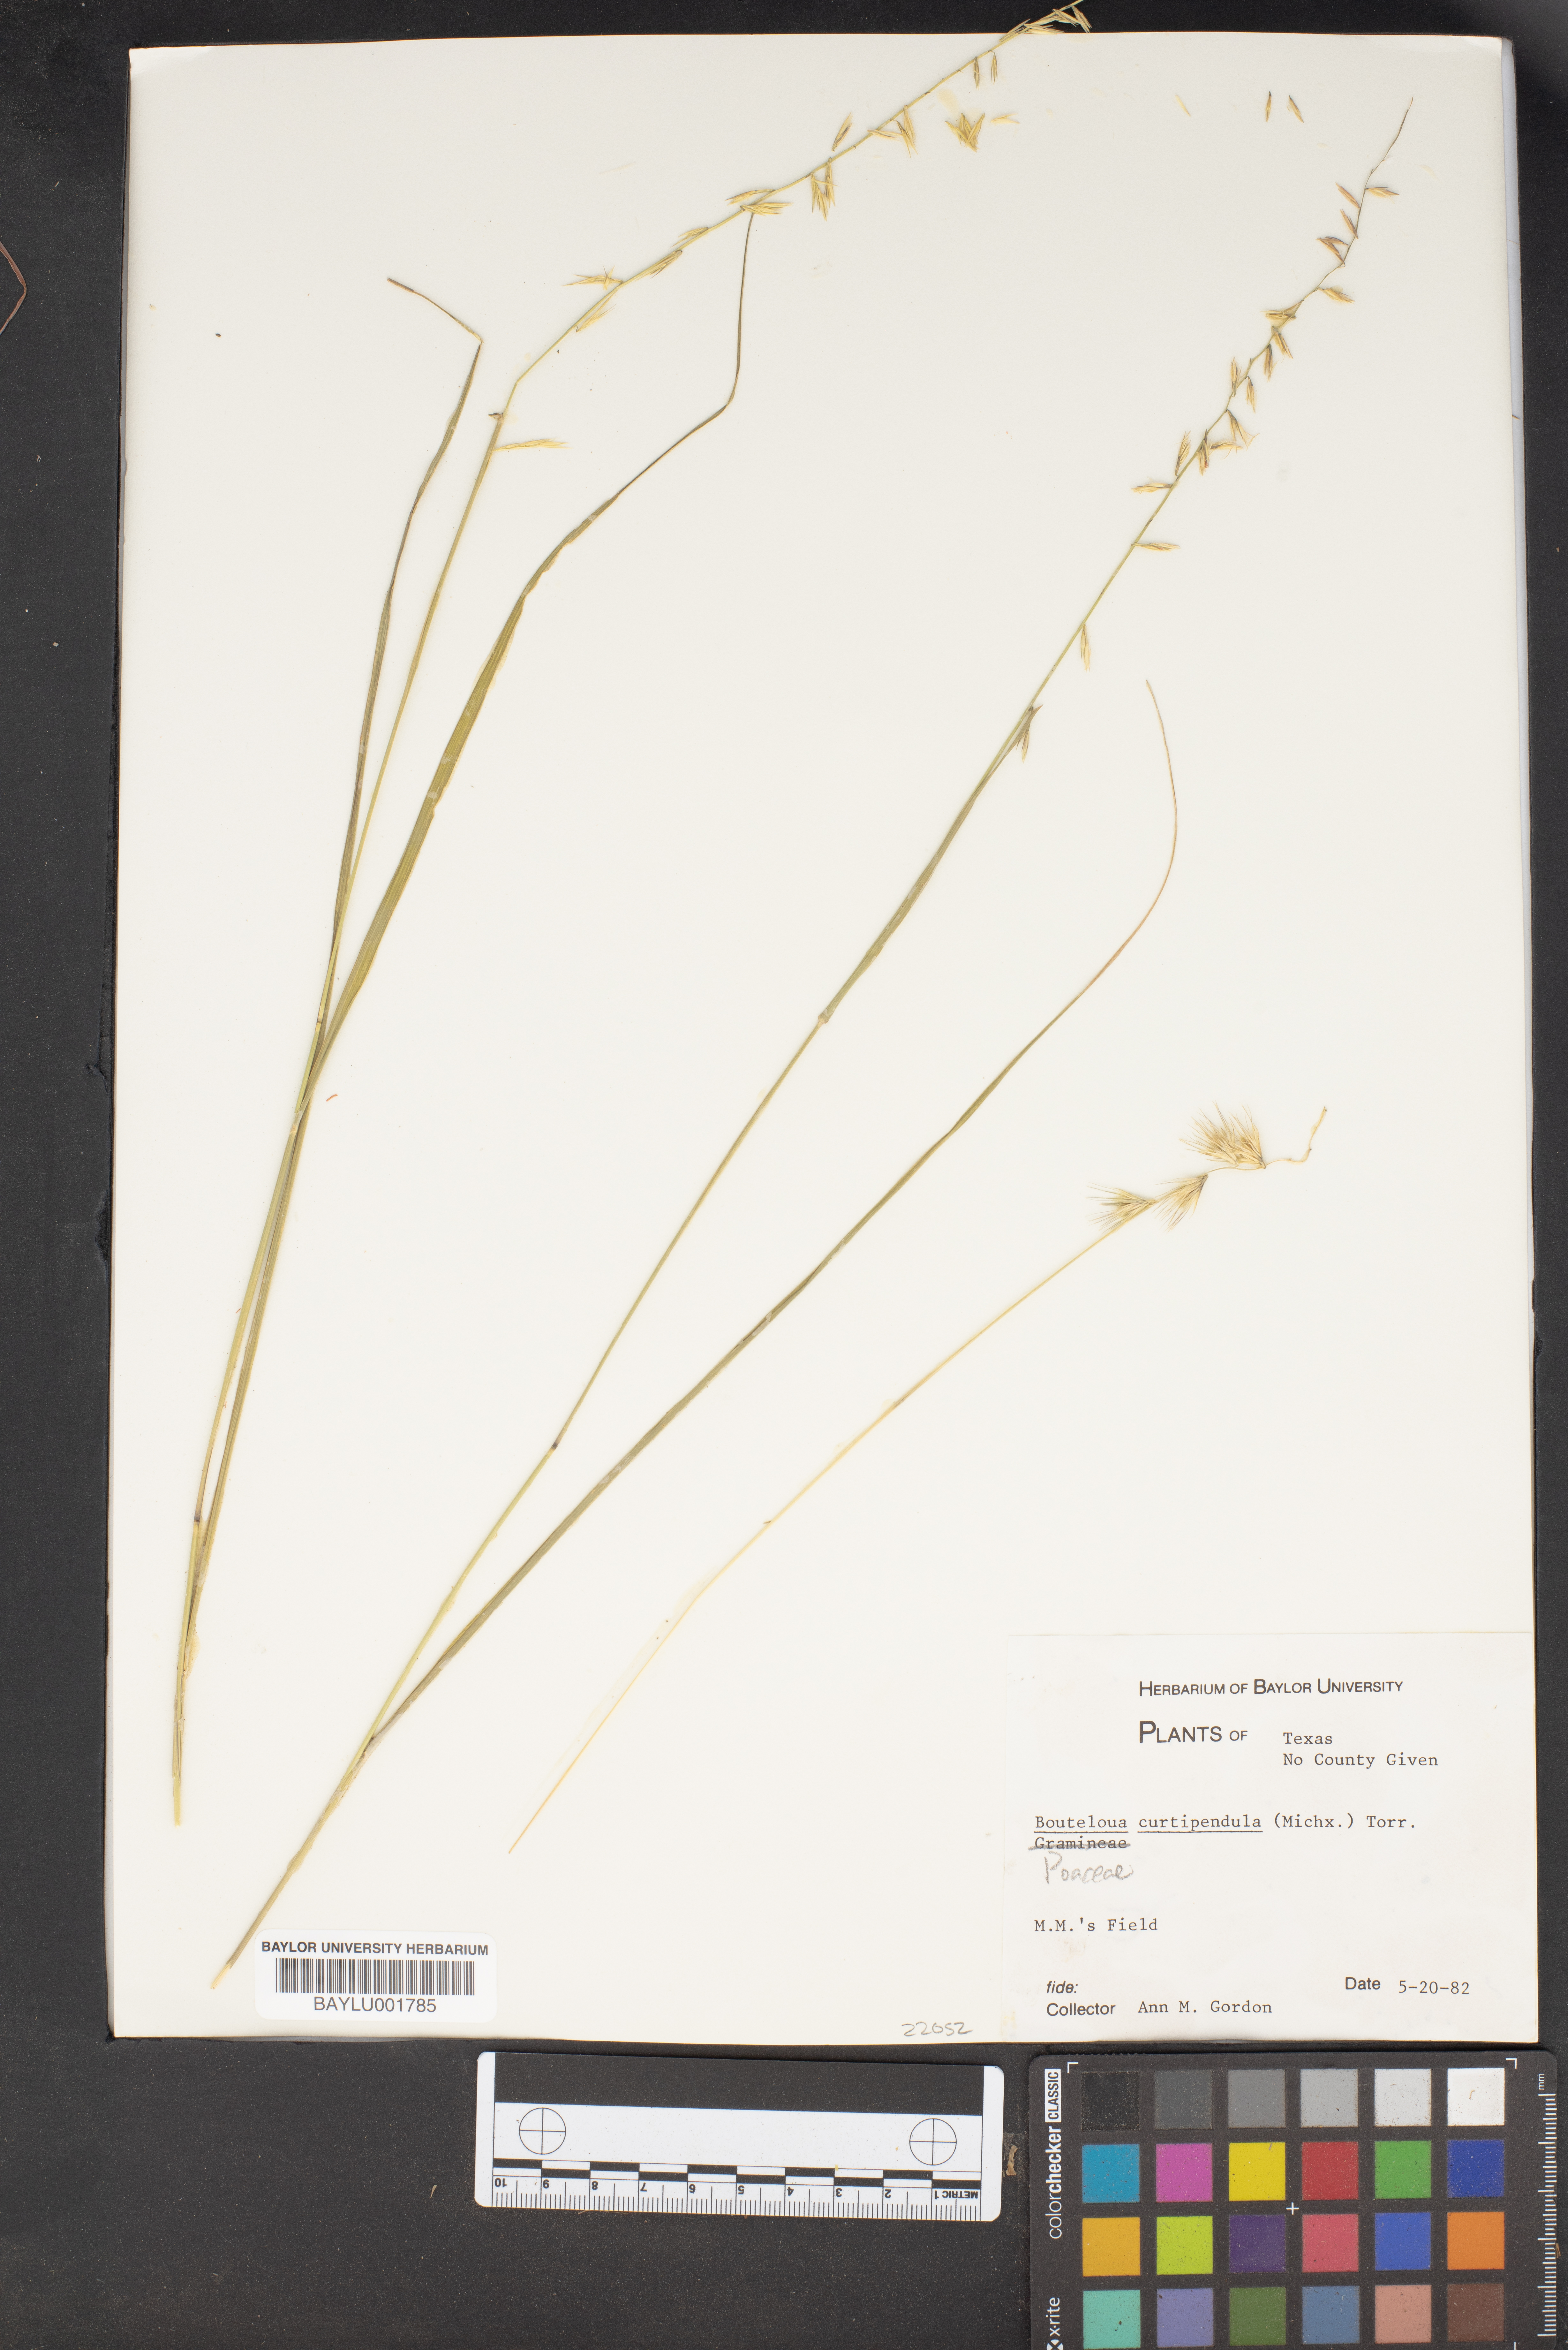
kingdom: Plantae
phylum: Tracheophyta
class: Liliopsida
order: Poales
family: Poaceae
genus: Bouteloua
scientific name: Bouteloua curtipendula
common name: Side-oats grama
